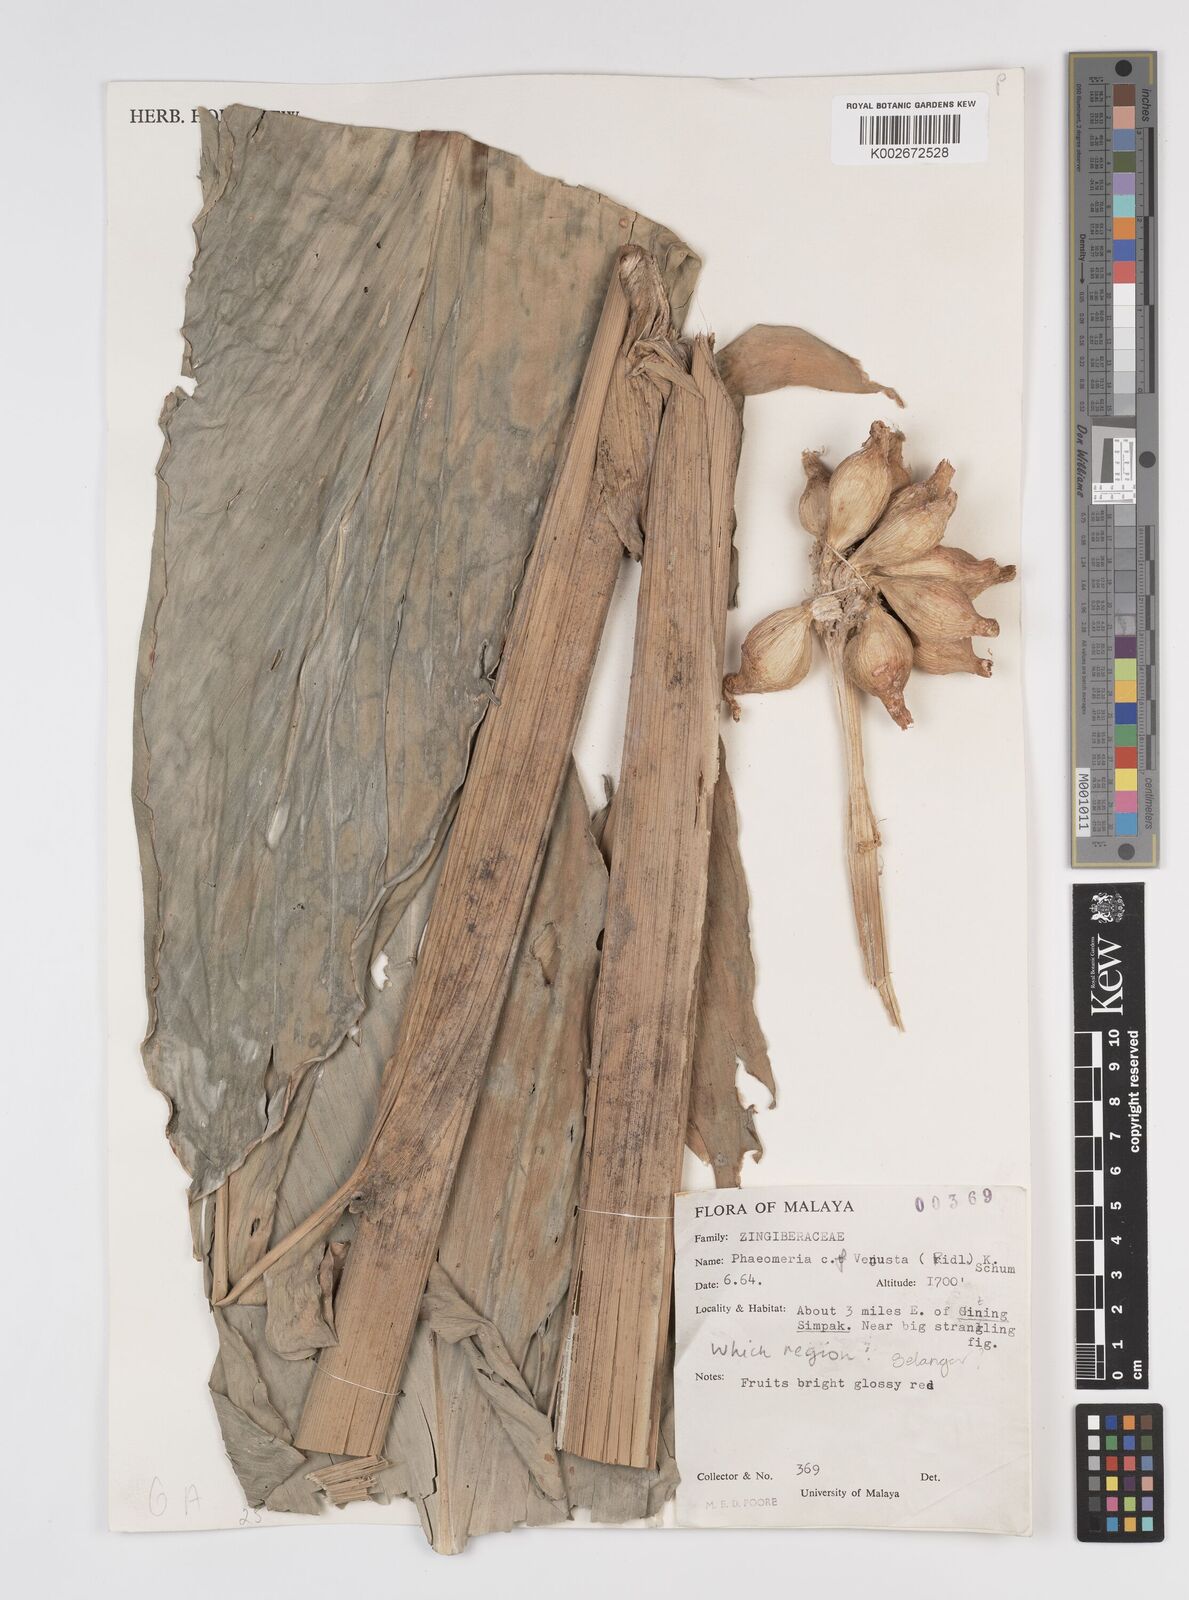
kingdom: Plantae
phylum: Tracheophyta
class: Liliopsida
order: Zingiberales
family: Zingiberaceae
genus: Etlingera
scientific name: Etlingera venusta
